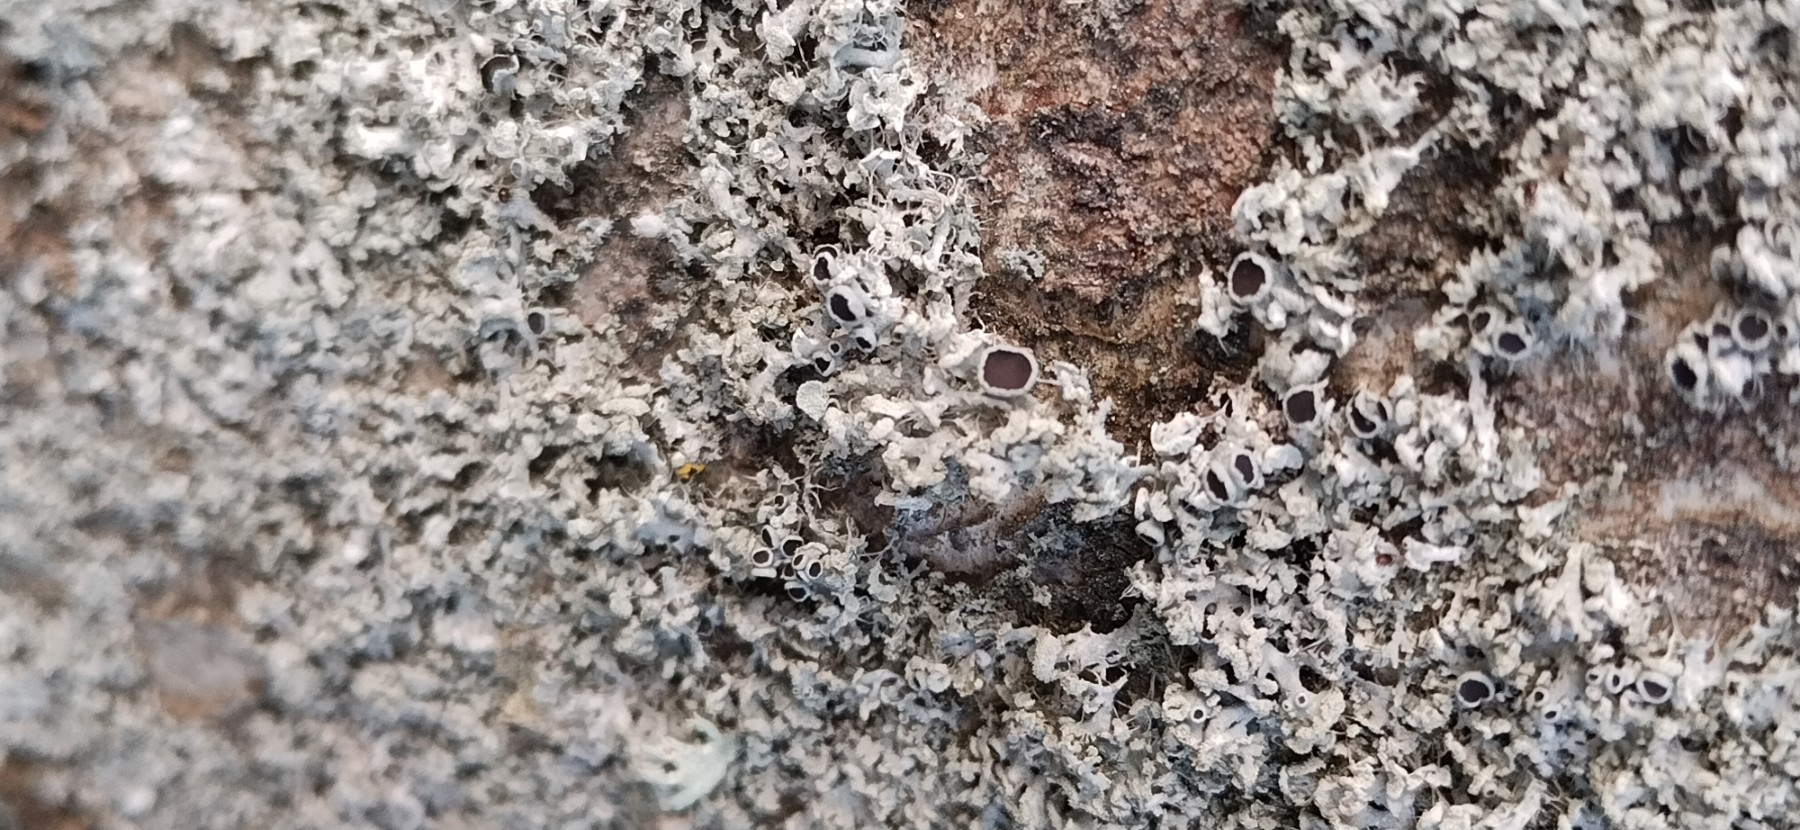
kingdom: Fungi
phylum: Ascomycota
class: Lecanoromycetes
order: Caliciales
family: Physciaceae
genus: Physcia
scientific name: Physcia tenella
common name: spæd rosetlav
